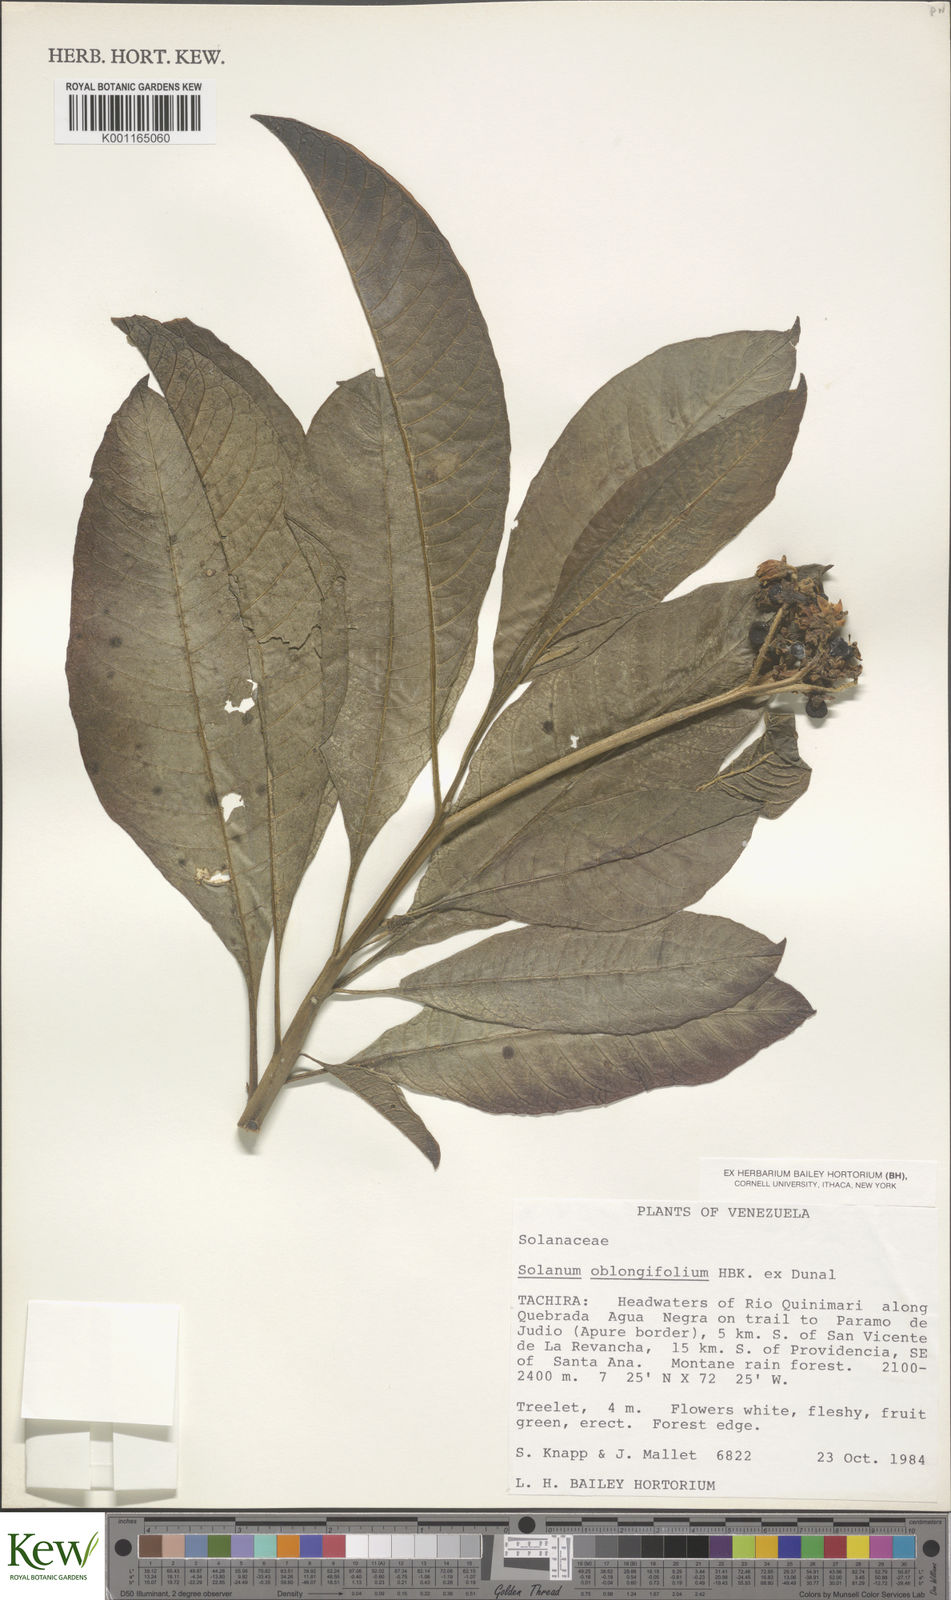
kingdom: Plantae
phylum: Tracheophyta
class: Magnoliopsida
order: Solanales
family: Solanaceae
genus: Solanum
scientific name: Solanum oblongifolium
